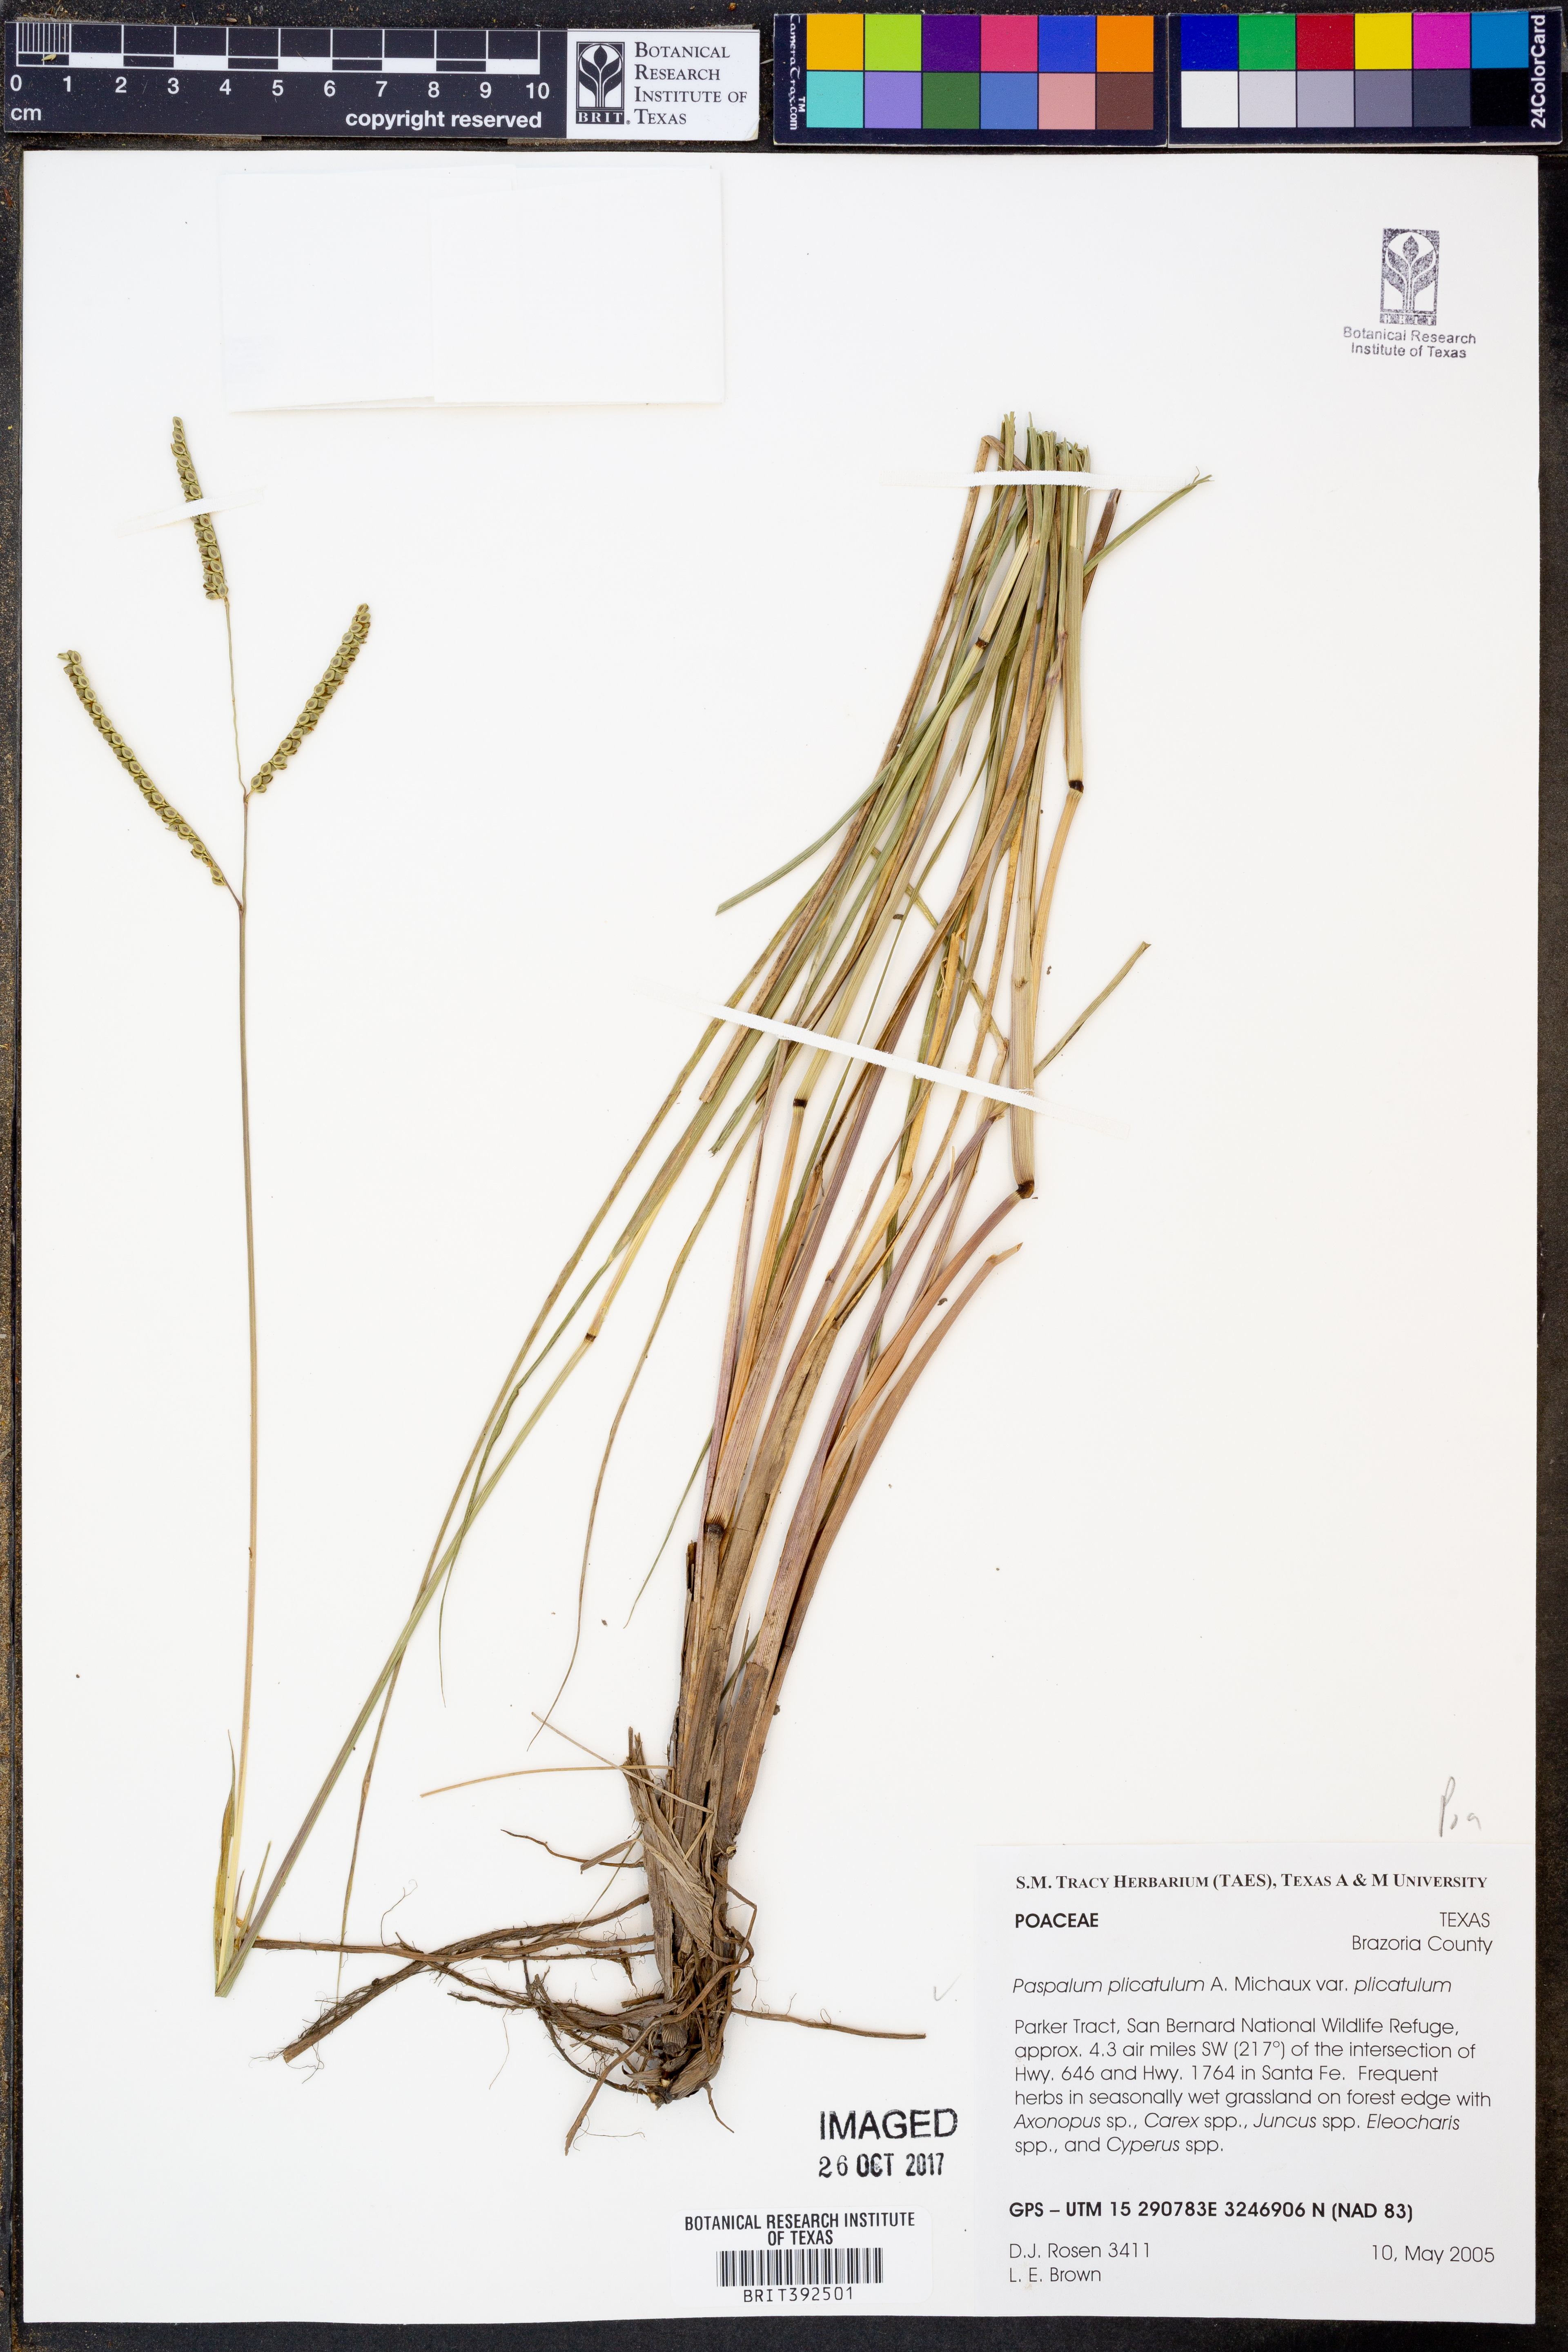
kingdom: Plantae
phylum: Tracheophyta
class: Liliopsida
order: Poales
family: Poaceae
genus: Paspalum
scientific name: Paspalum plicatulum
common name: Top paspalum
